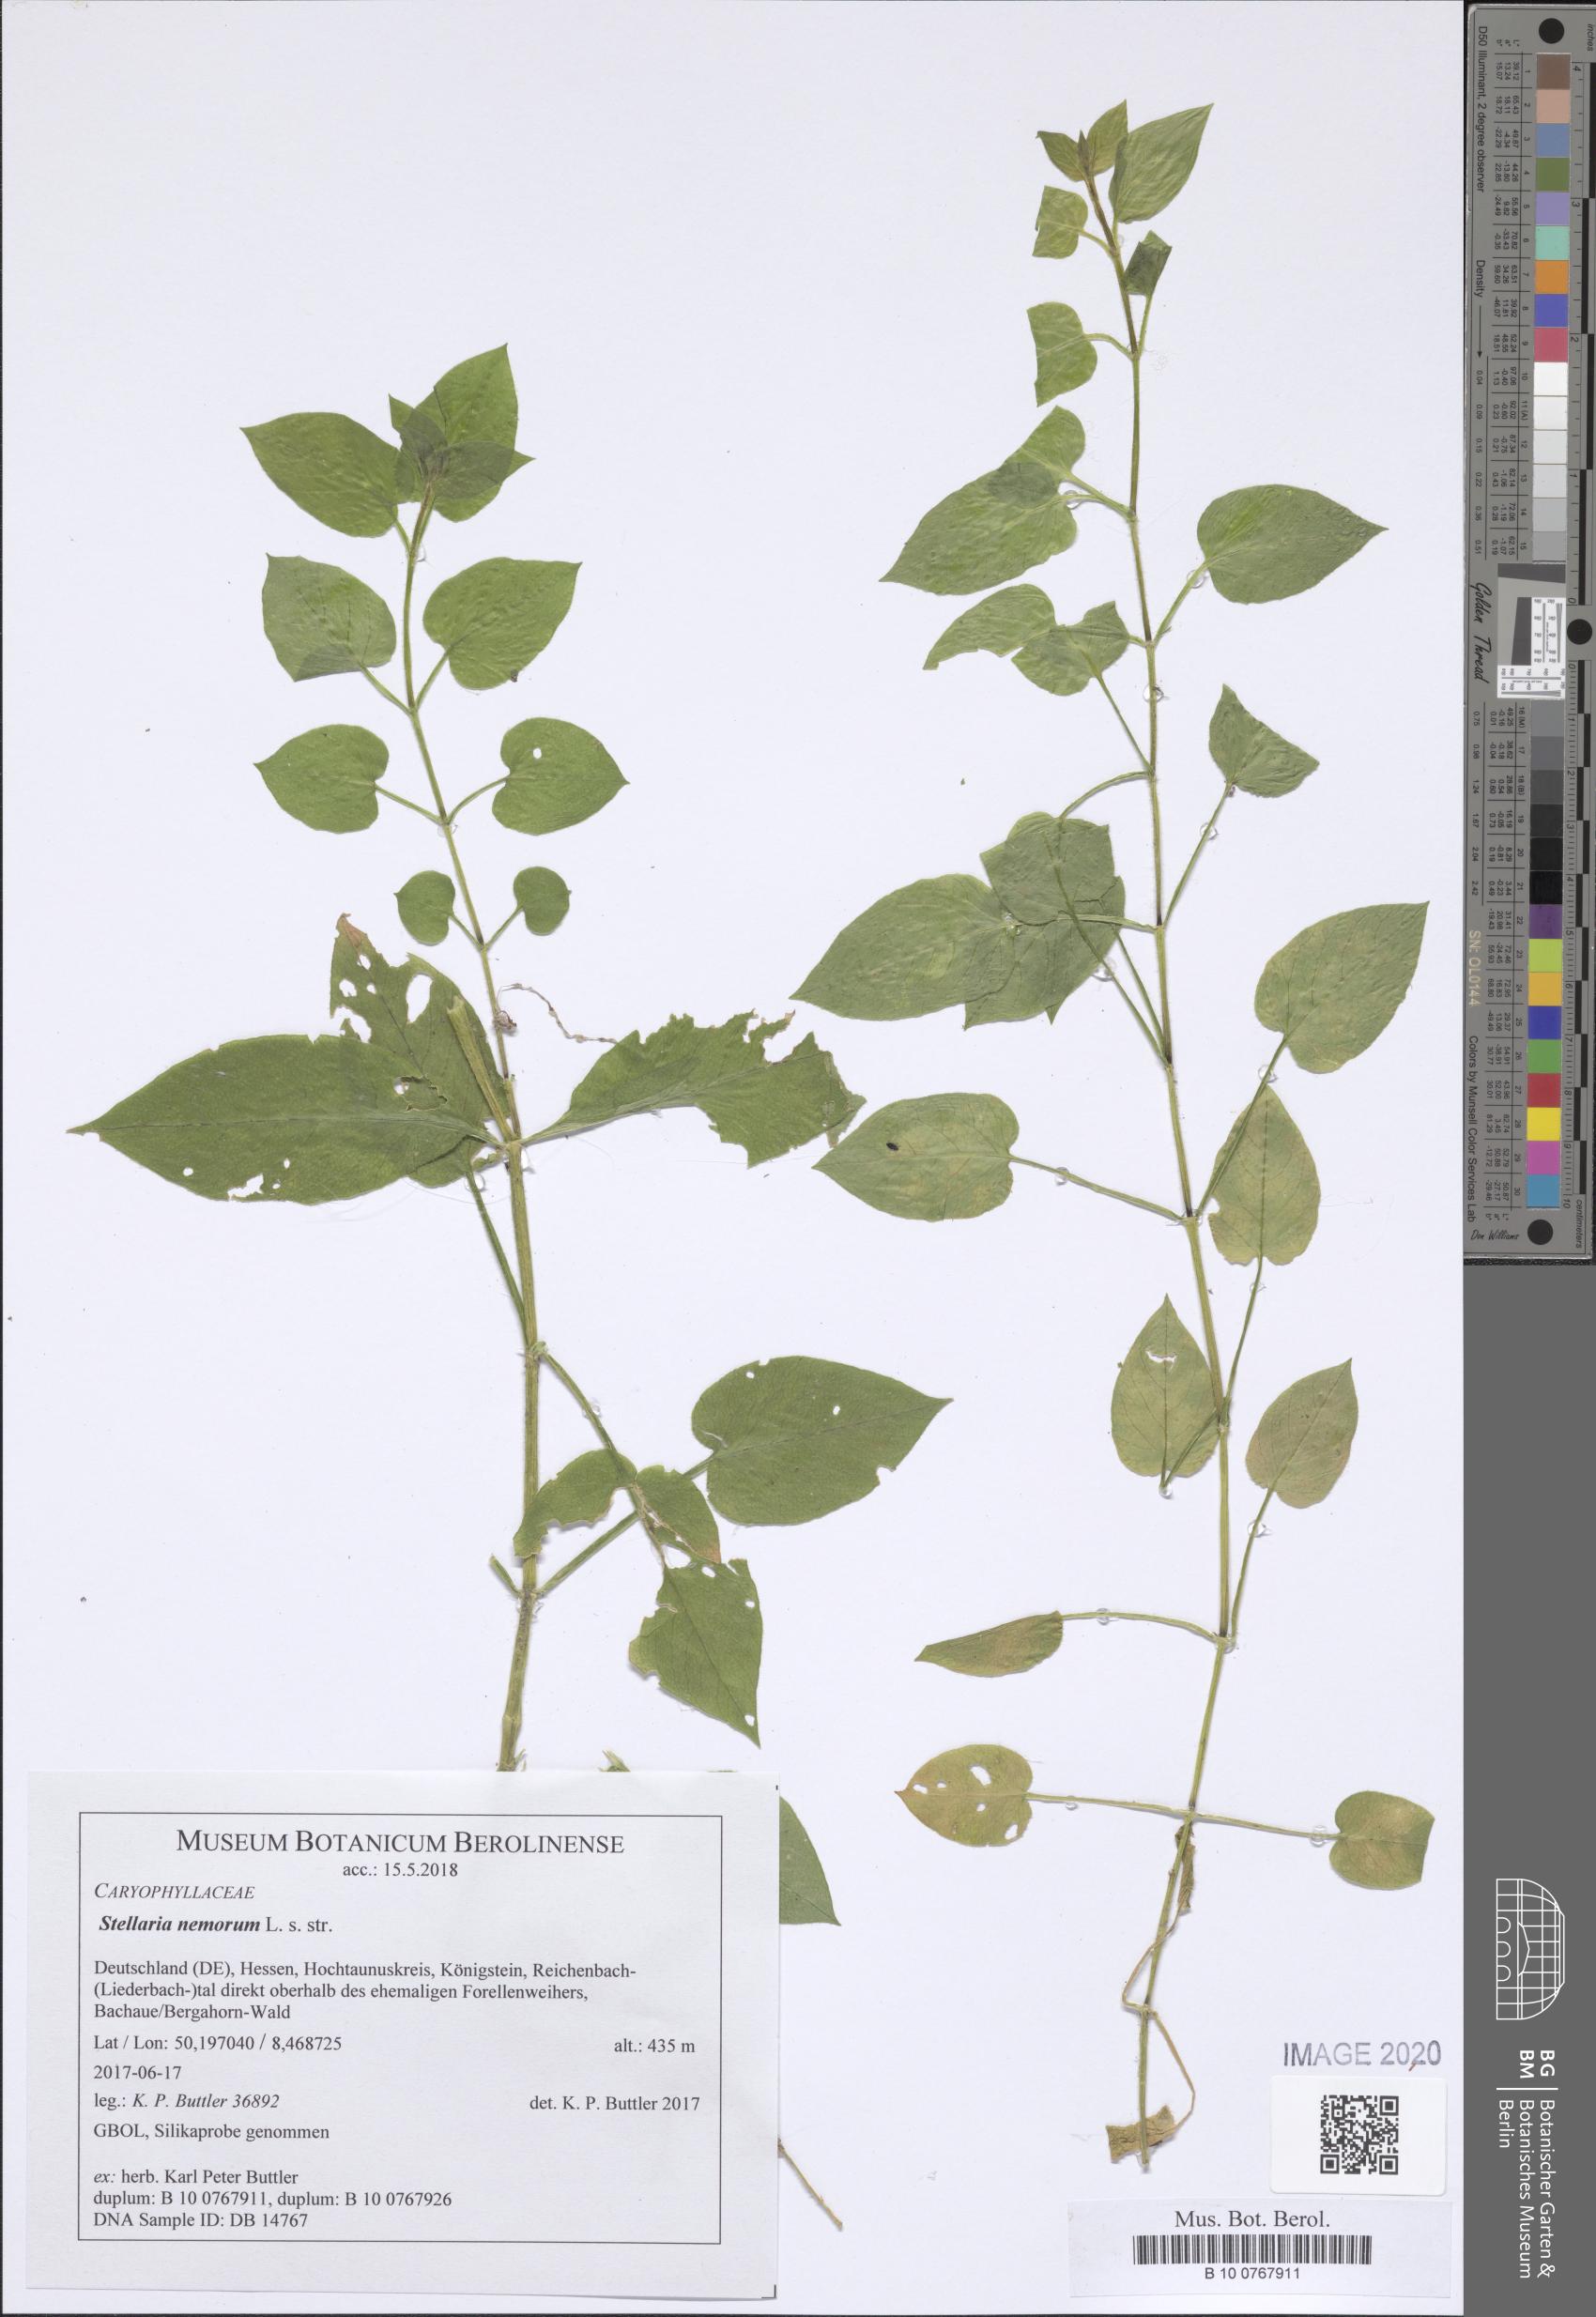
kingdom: Plantae
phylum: Tracheophyta
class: Magnoliopsida
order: Caryophyllales
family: Caryophyllaceae
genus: Stellaria
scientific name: Stellaria nemorum
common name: Wood stitchwort
